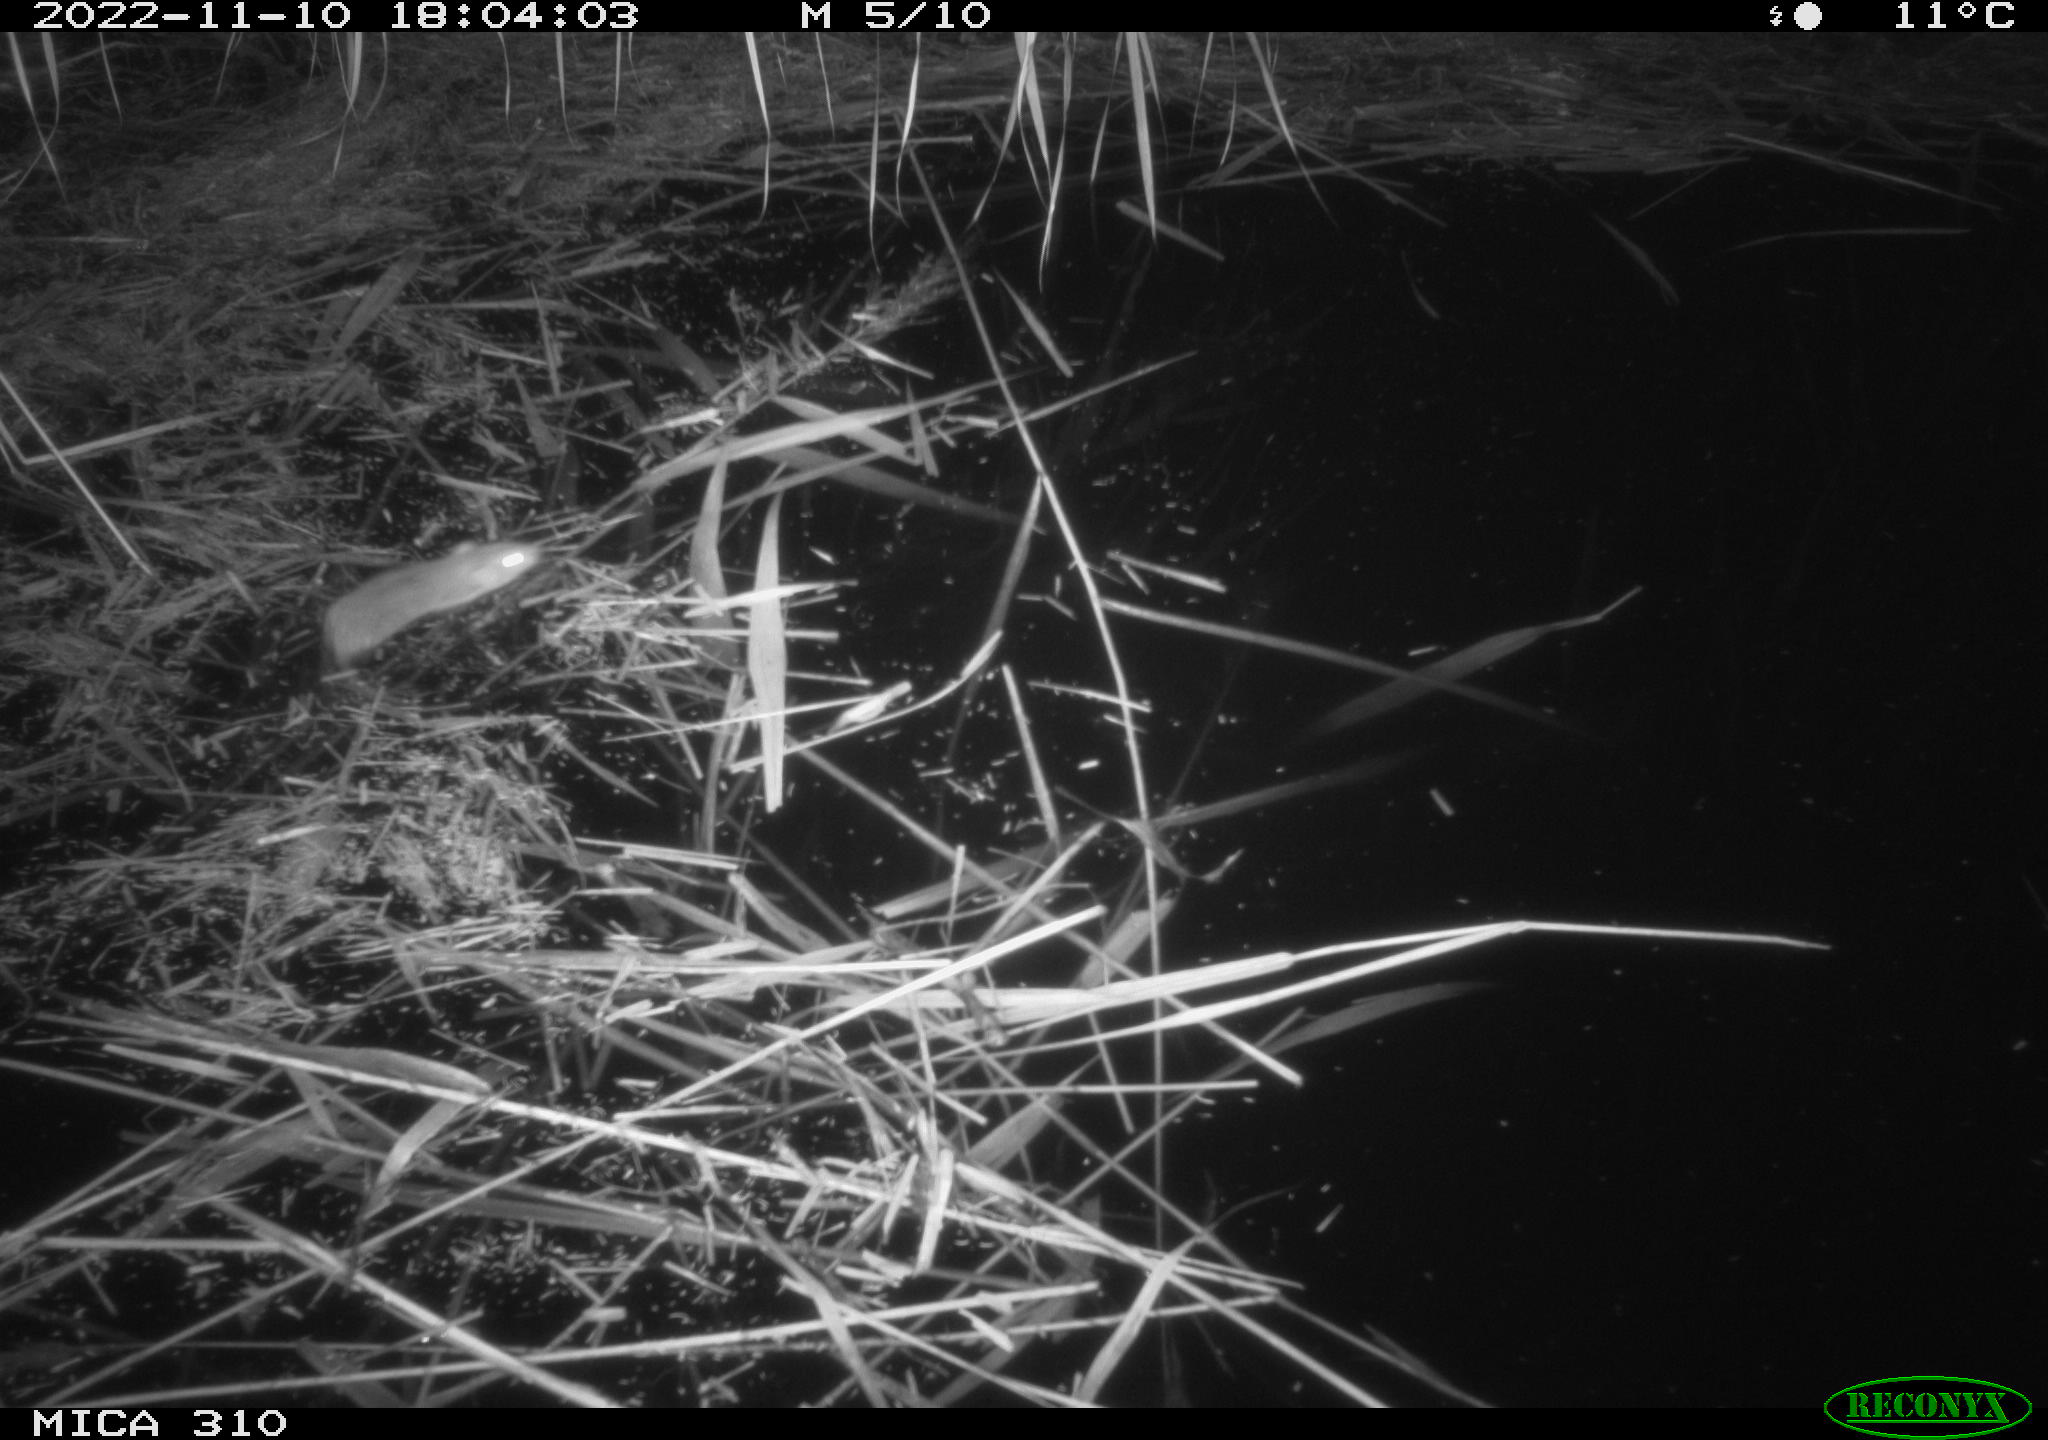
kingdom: Animalia
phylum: Chordata
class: Mammalia
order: Rodentia
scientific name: Rodentia
